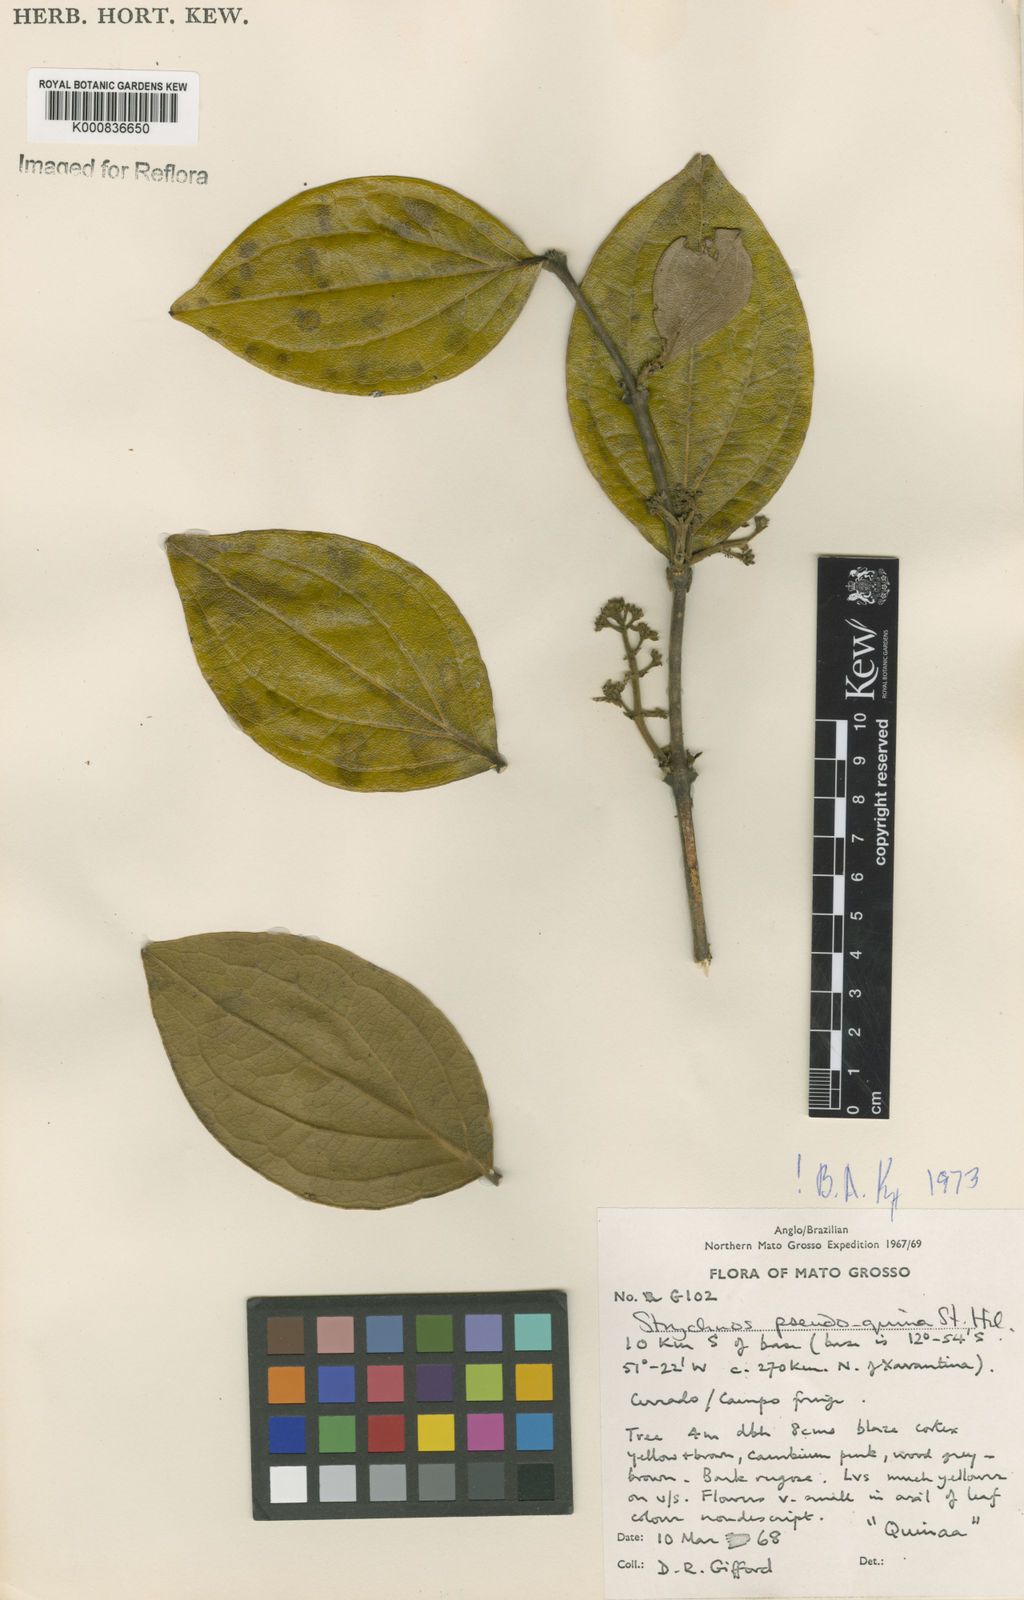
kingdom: Plantae
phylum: Tracheophyta
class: Magnoliopsida
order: Gentianales
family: Loganiaceae
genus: Strychnos
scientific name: Strychnos pseudoquina
